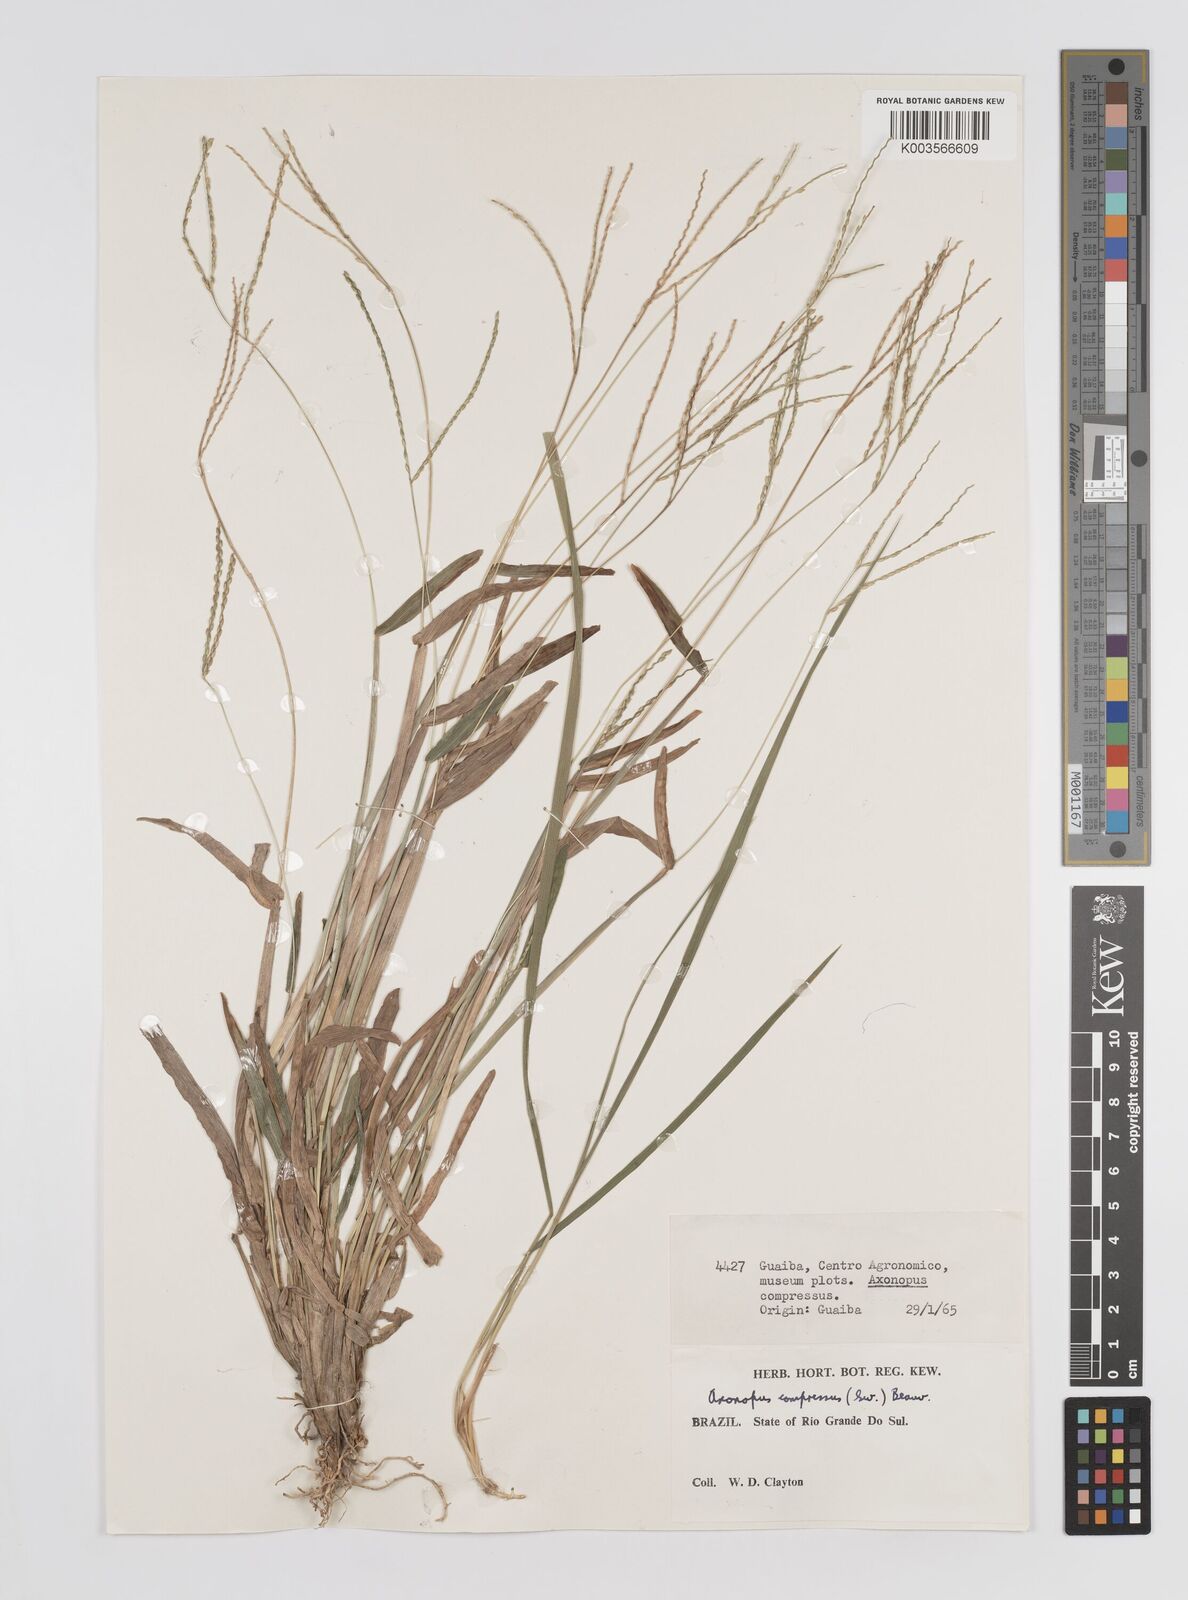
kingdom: Plantae
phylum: Tracheophyta
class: Liliopsida
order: Poales
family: Poaceae
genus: Axonopus
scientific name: Axonopus compressus
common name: American carpet grass
